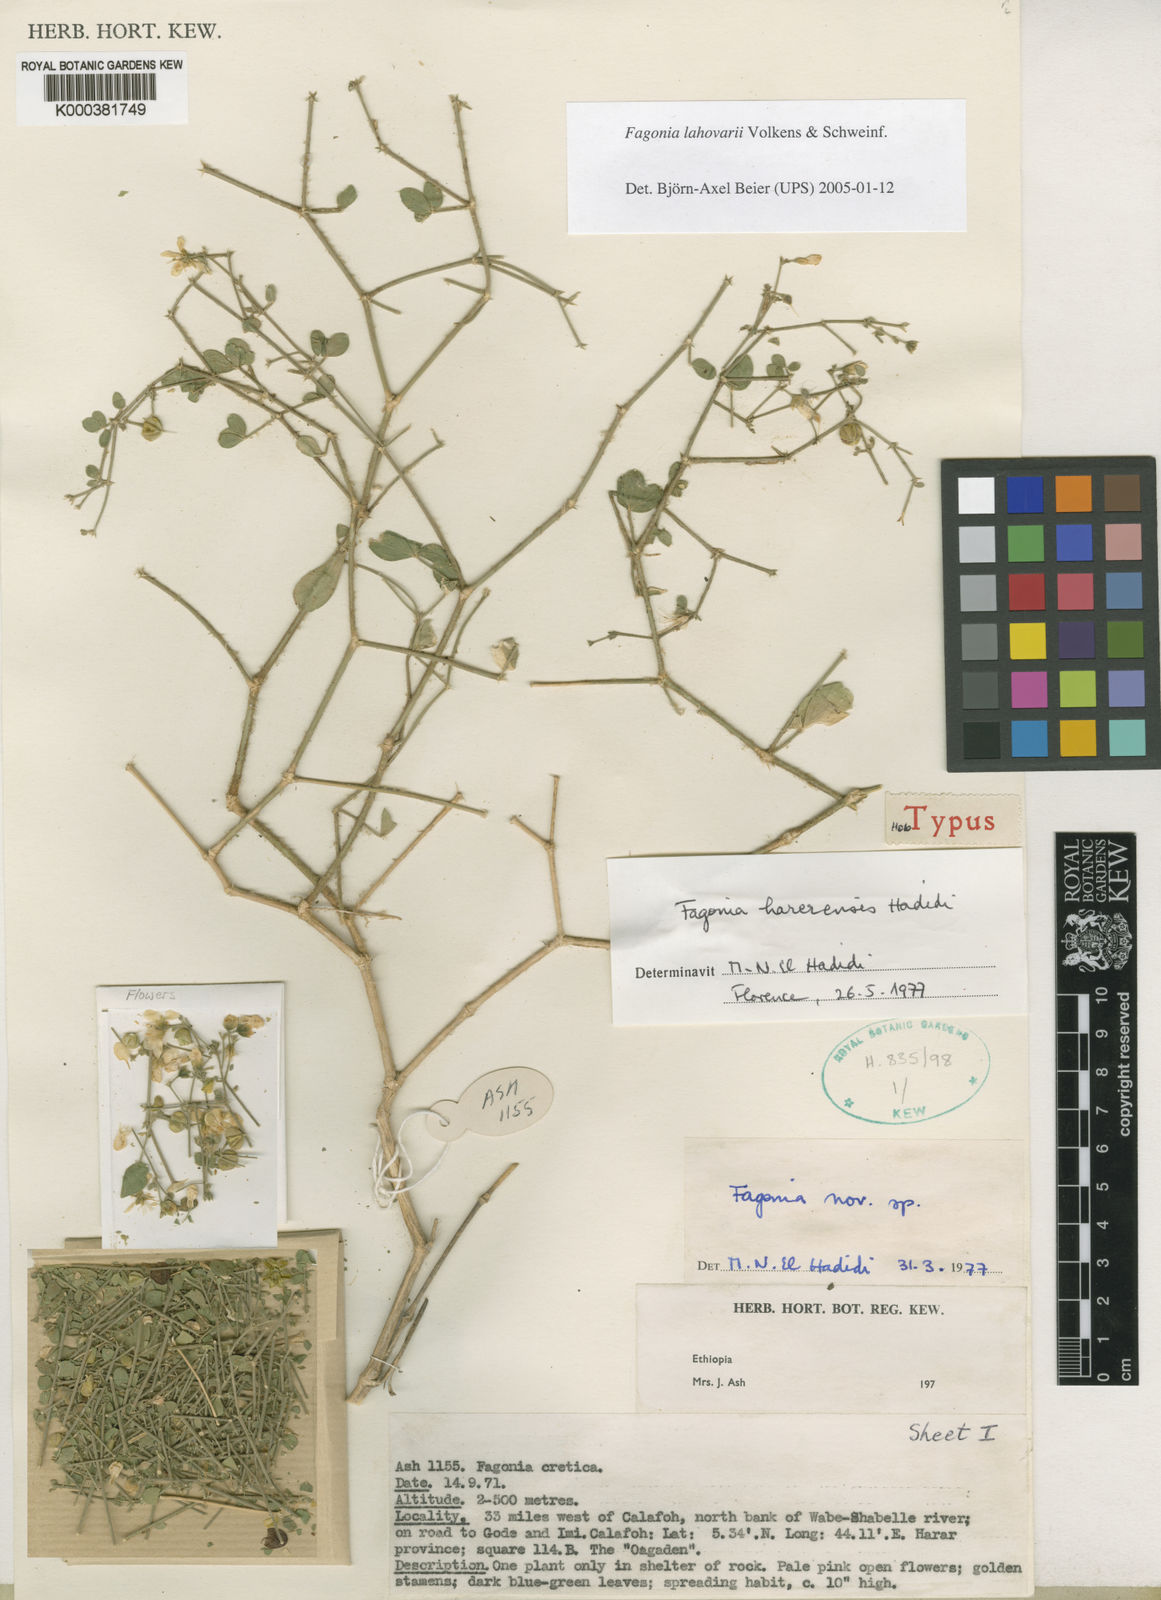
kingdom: Plantae
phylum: Tracheophyta
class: Magnoliopsida
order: Zygophyllales
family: Zygophyllaceae
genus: Fagonia
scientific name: Fagonia lahovarii
